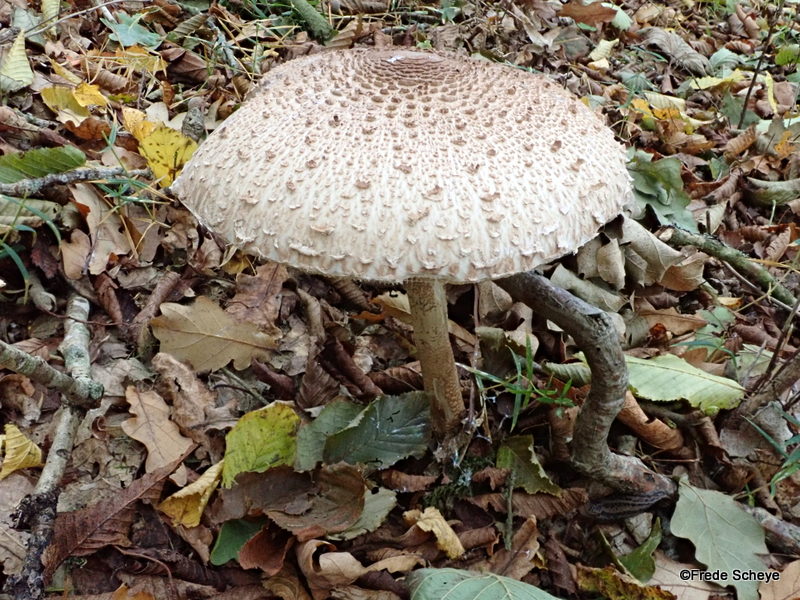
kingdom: Fungi
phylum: Basidiomycota
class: Agaricomycetes
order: Agaricales
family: Agaricaceae
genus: Macrolepiota
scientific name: Macrolepiota procera
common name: stor kæmpeparasolhat
